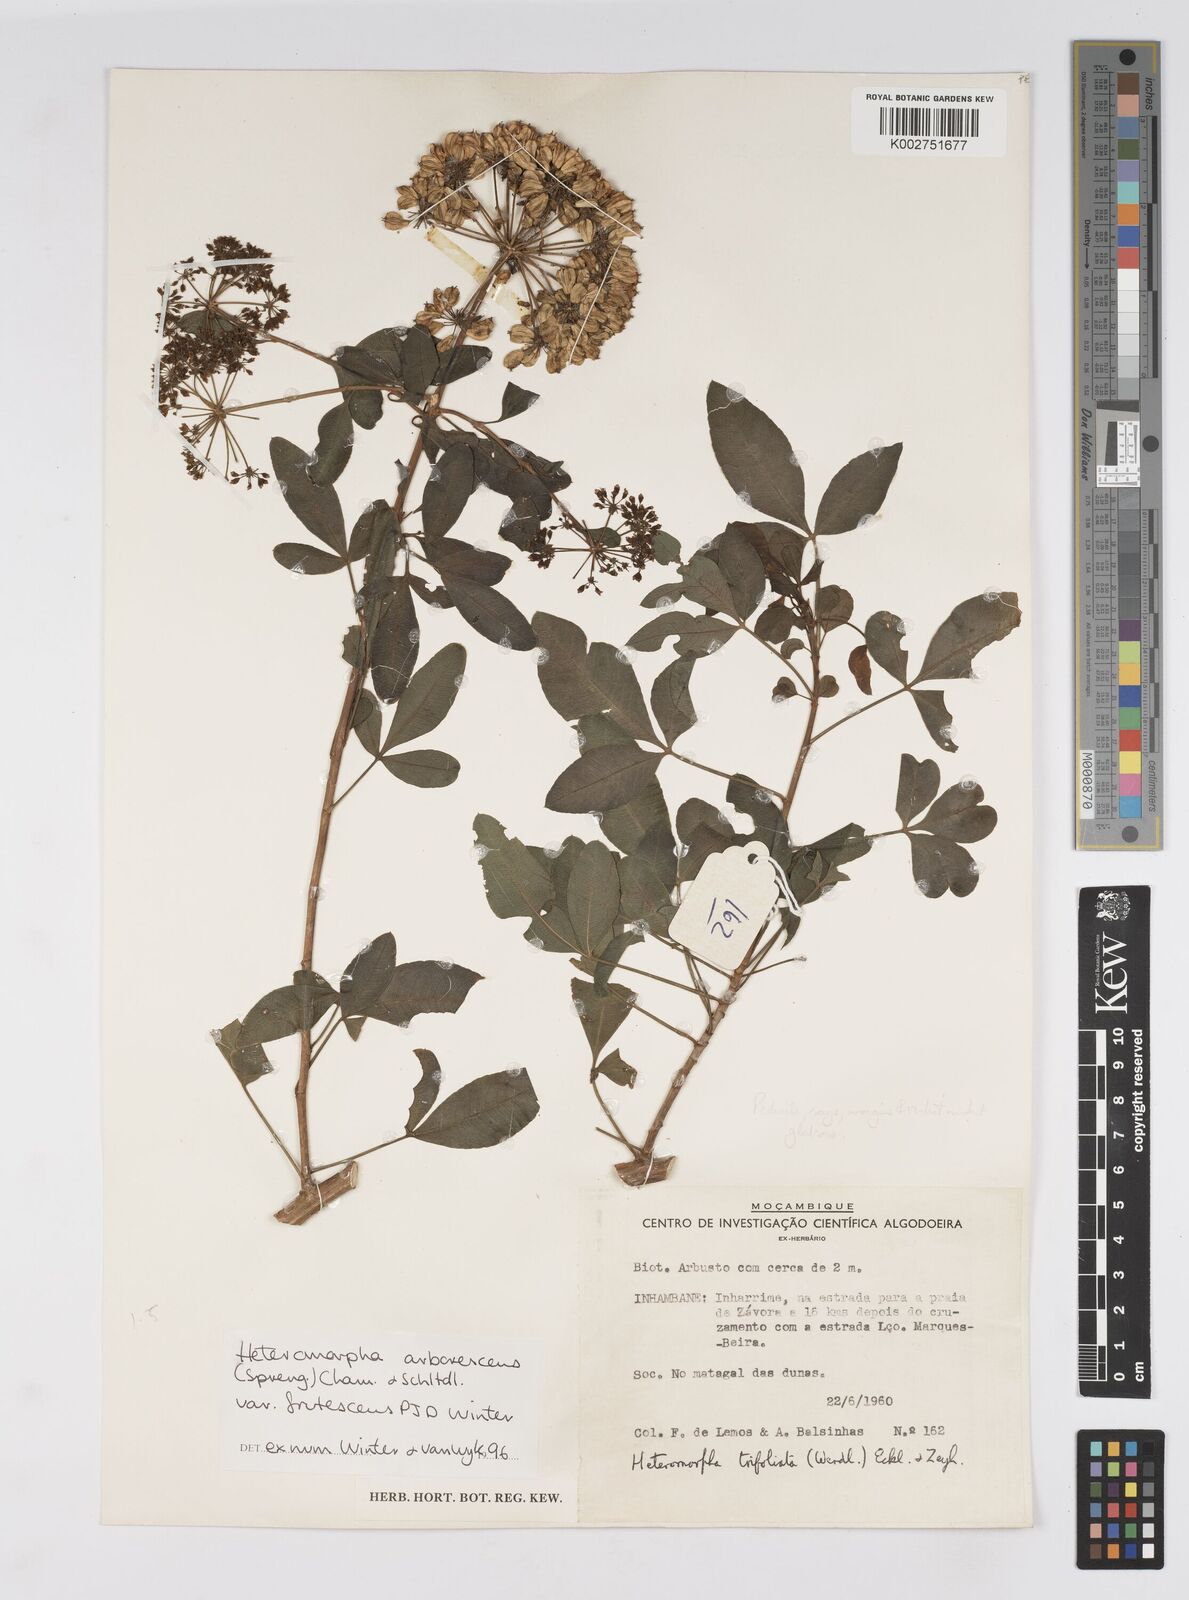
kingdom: Plantae
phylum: Tracheophyta
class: Magnoliopsida
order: Apiales
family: Apiaceae
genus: Heteromorpha
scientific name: Heteromorpha arborescens
